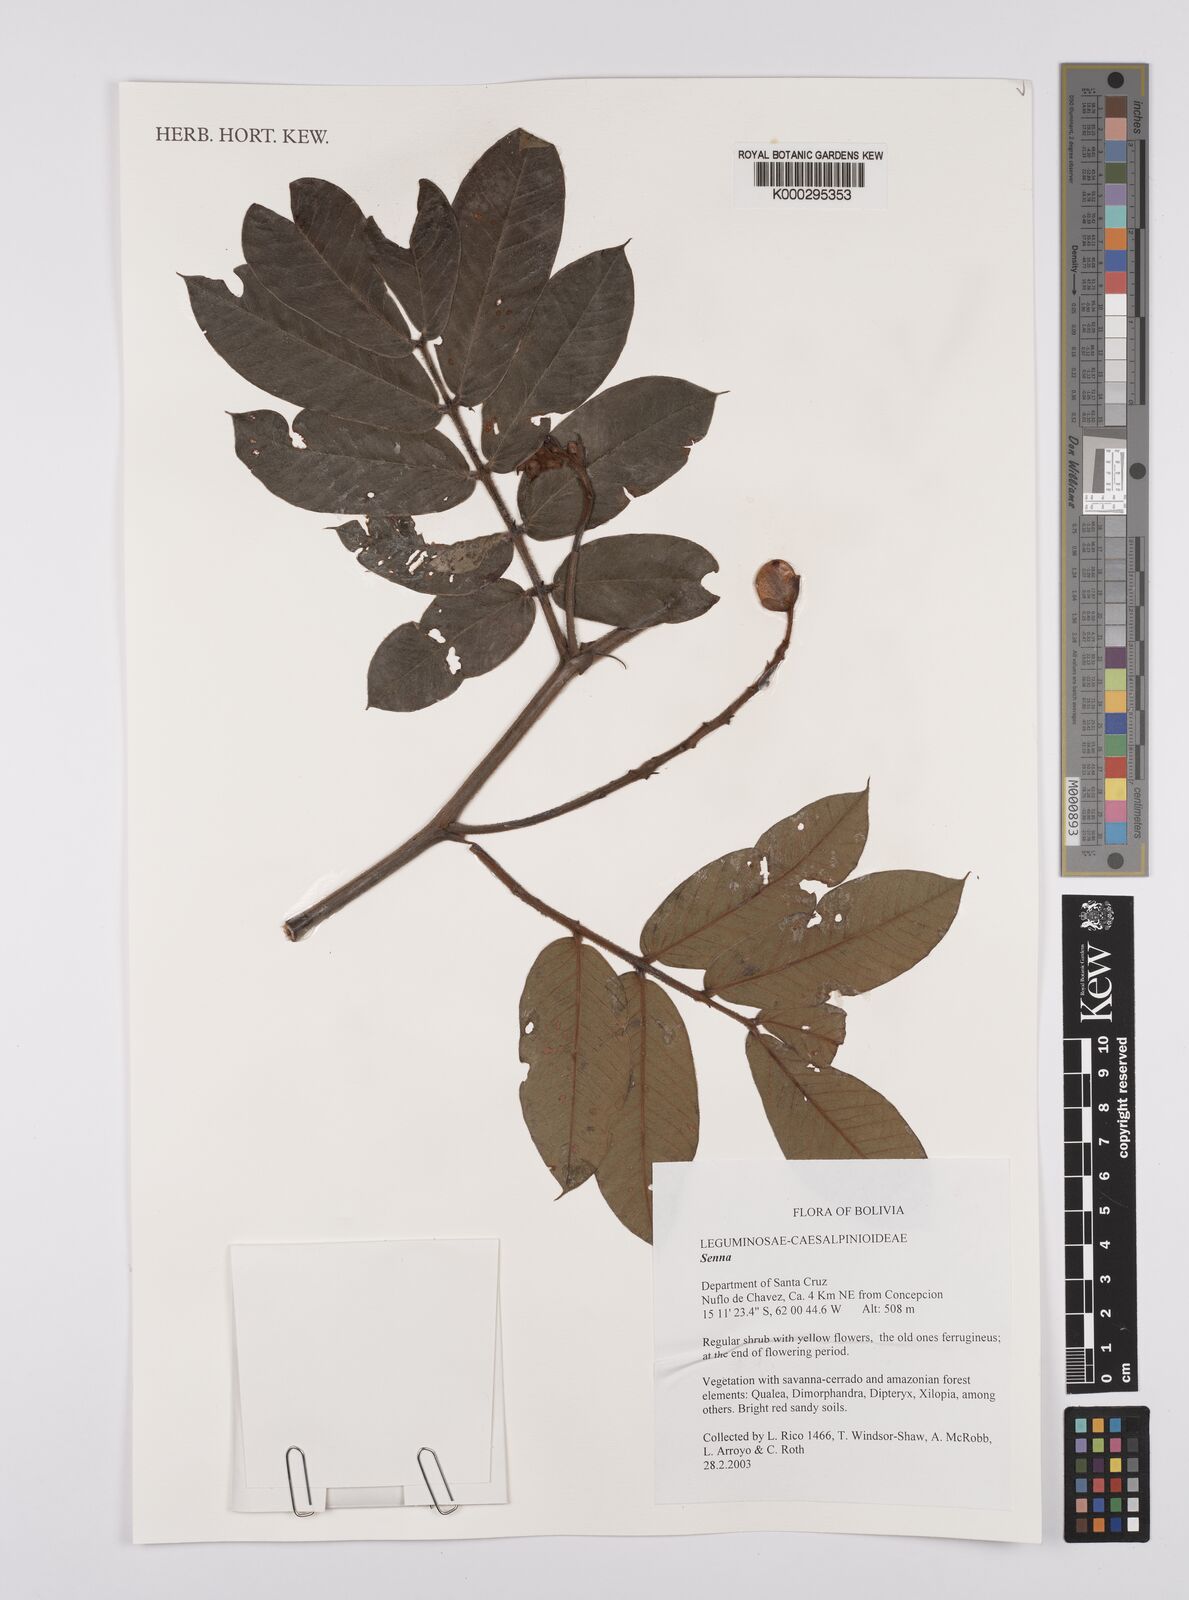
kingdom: Plantae
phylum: Tracheophyta
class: Magnoliopsida
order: Fabales
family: Fabaceae
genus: Senna
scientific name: Senna
